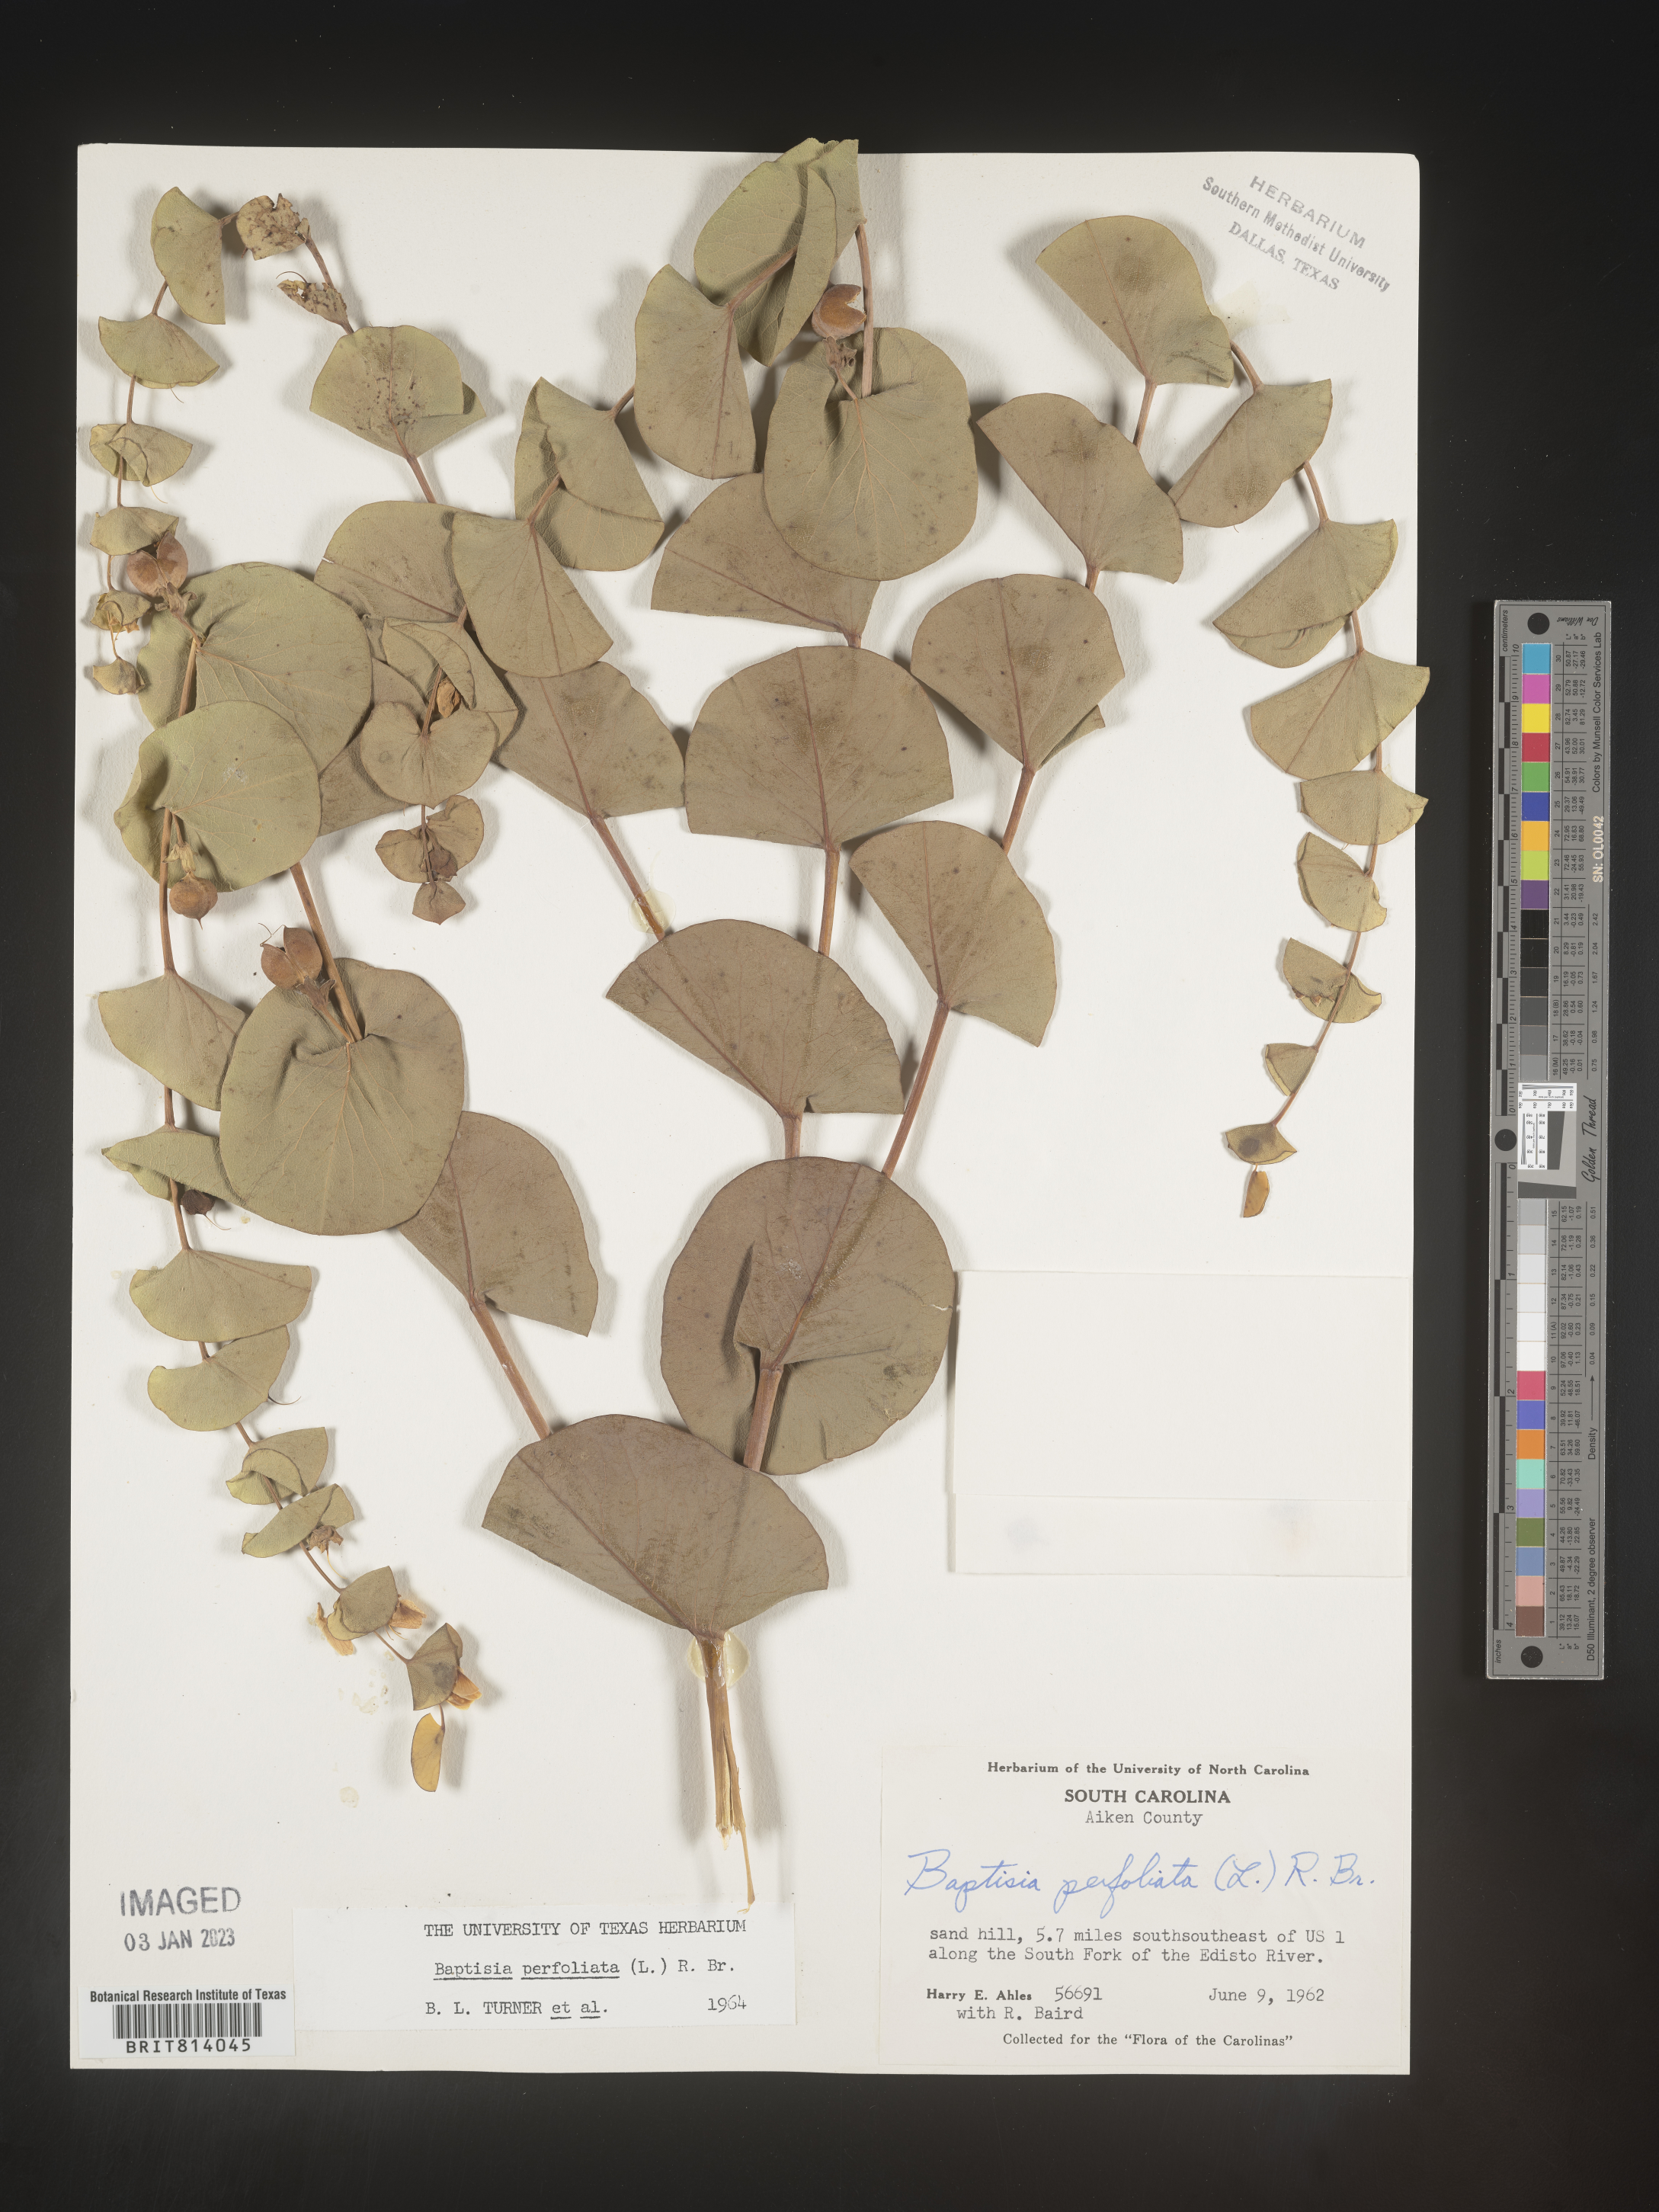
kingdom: Plantae
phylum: Tracheophyta
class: Magnoliopsida
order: Fabales
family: Fabaceae
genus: Baptisia
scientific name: Baptisia perfoliata
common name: Catbells
